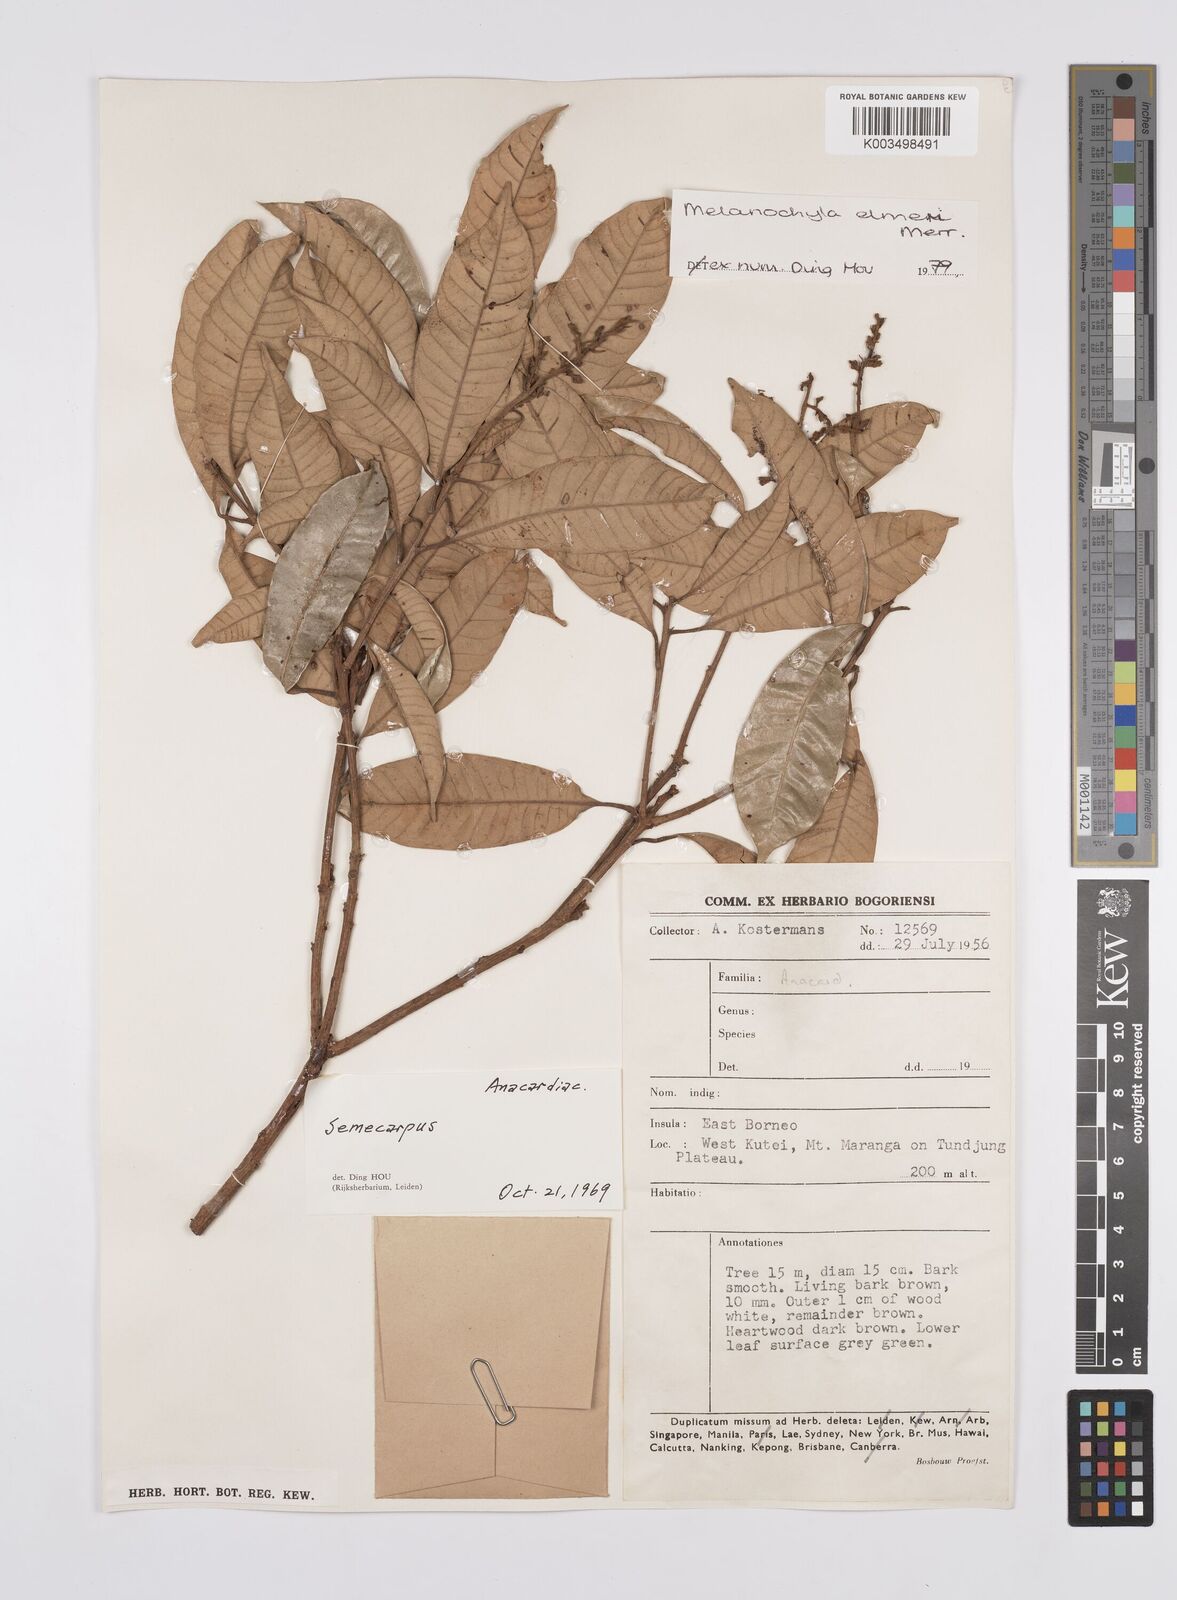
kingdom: Plantae
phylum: Tracheophyta
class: Magnoliopsida
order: Sapindales
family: Anacardiaceae
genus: Melanochyla
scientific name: Melanochyla elmeri
